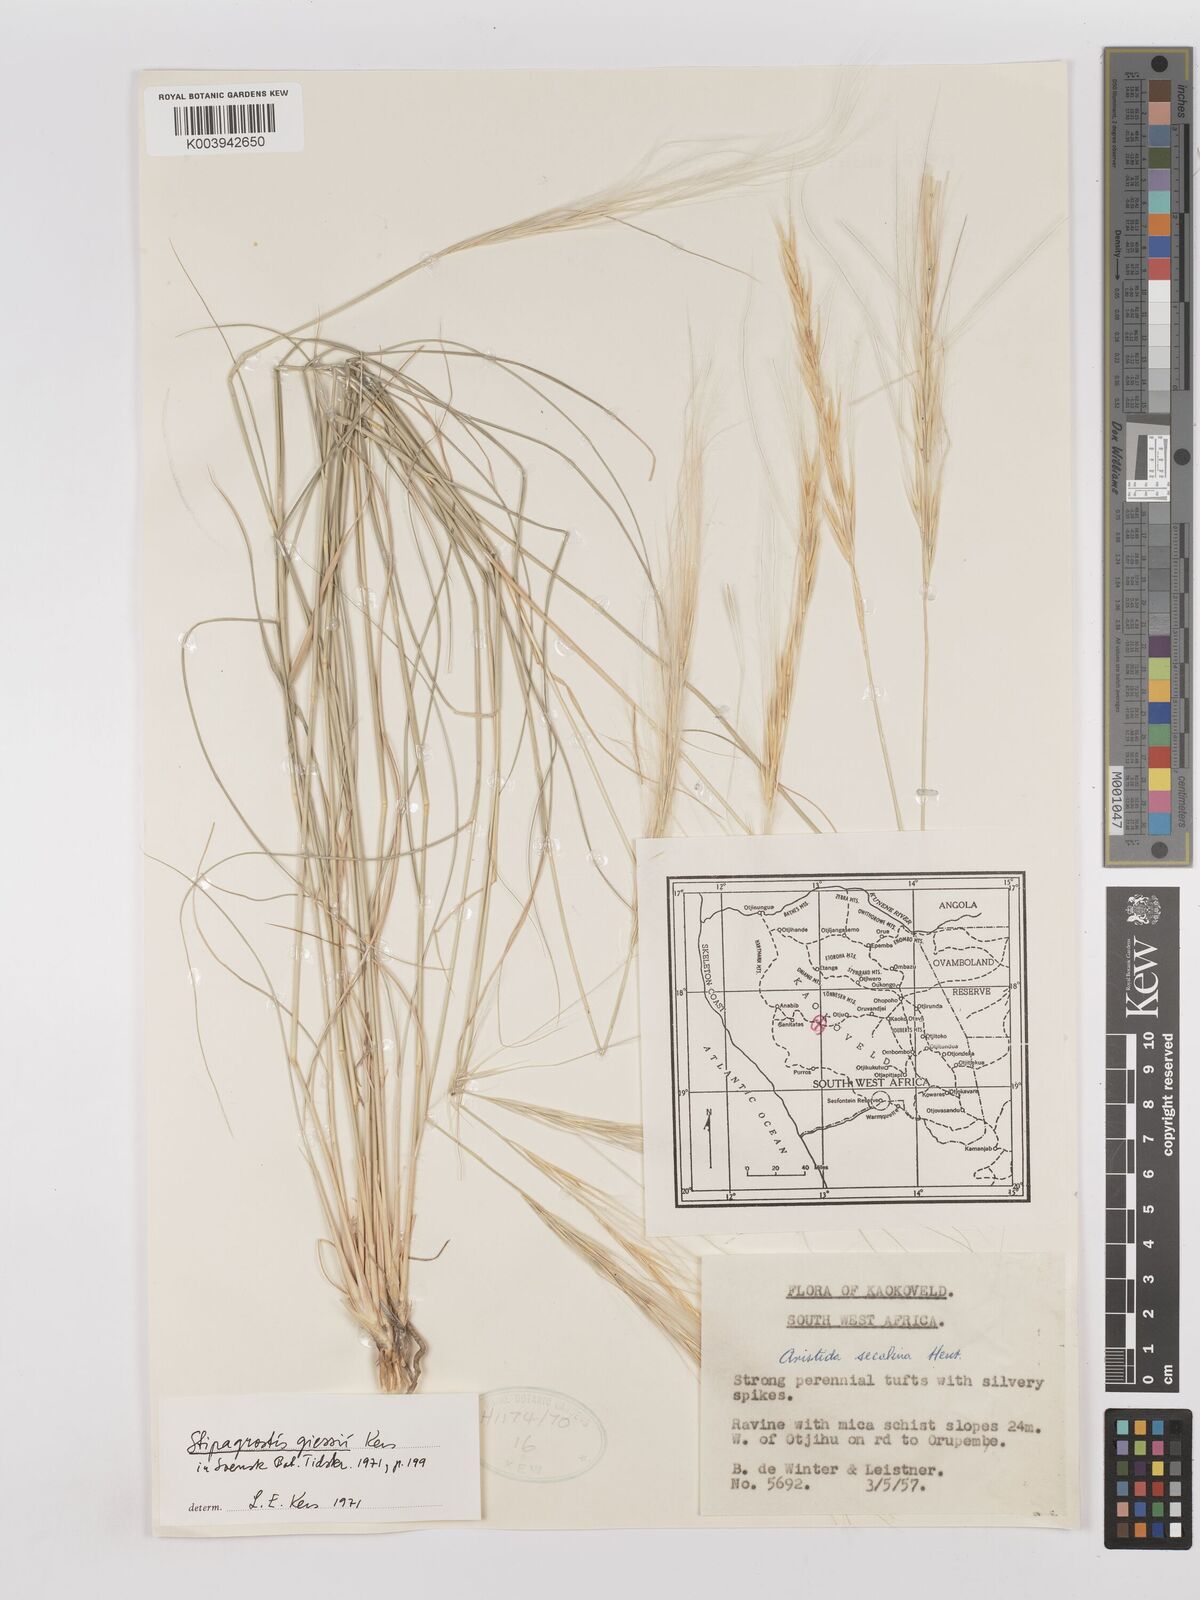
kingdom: Plantae
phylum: Tracheophyta
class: Liliopsida
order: Poales
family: Poaceae
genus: Stipagrostis
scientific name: Stipagrostis giessii
